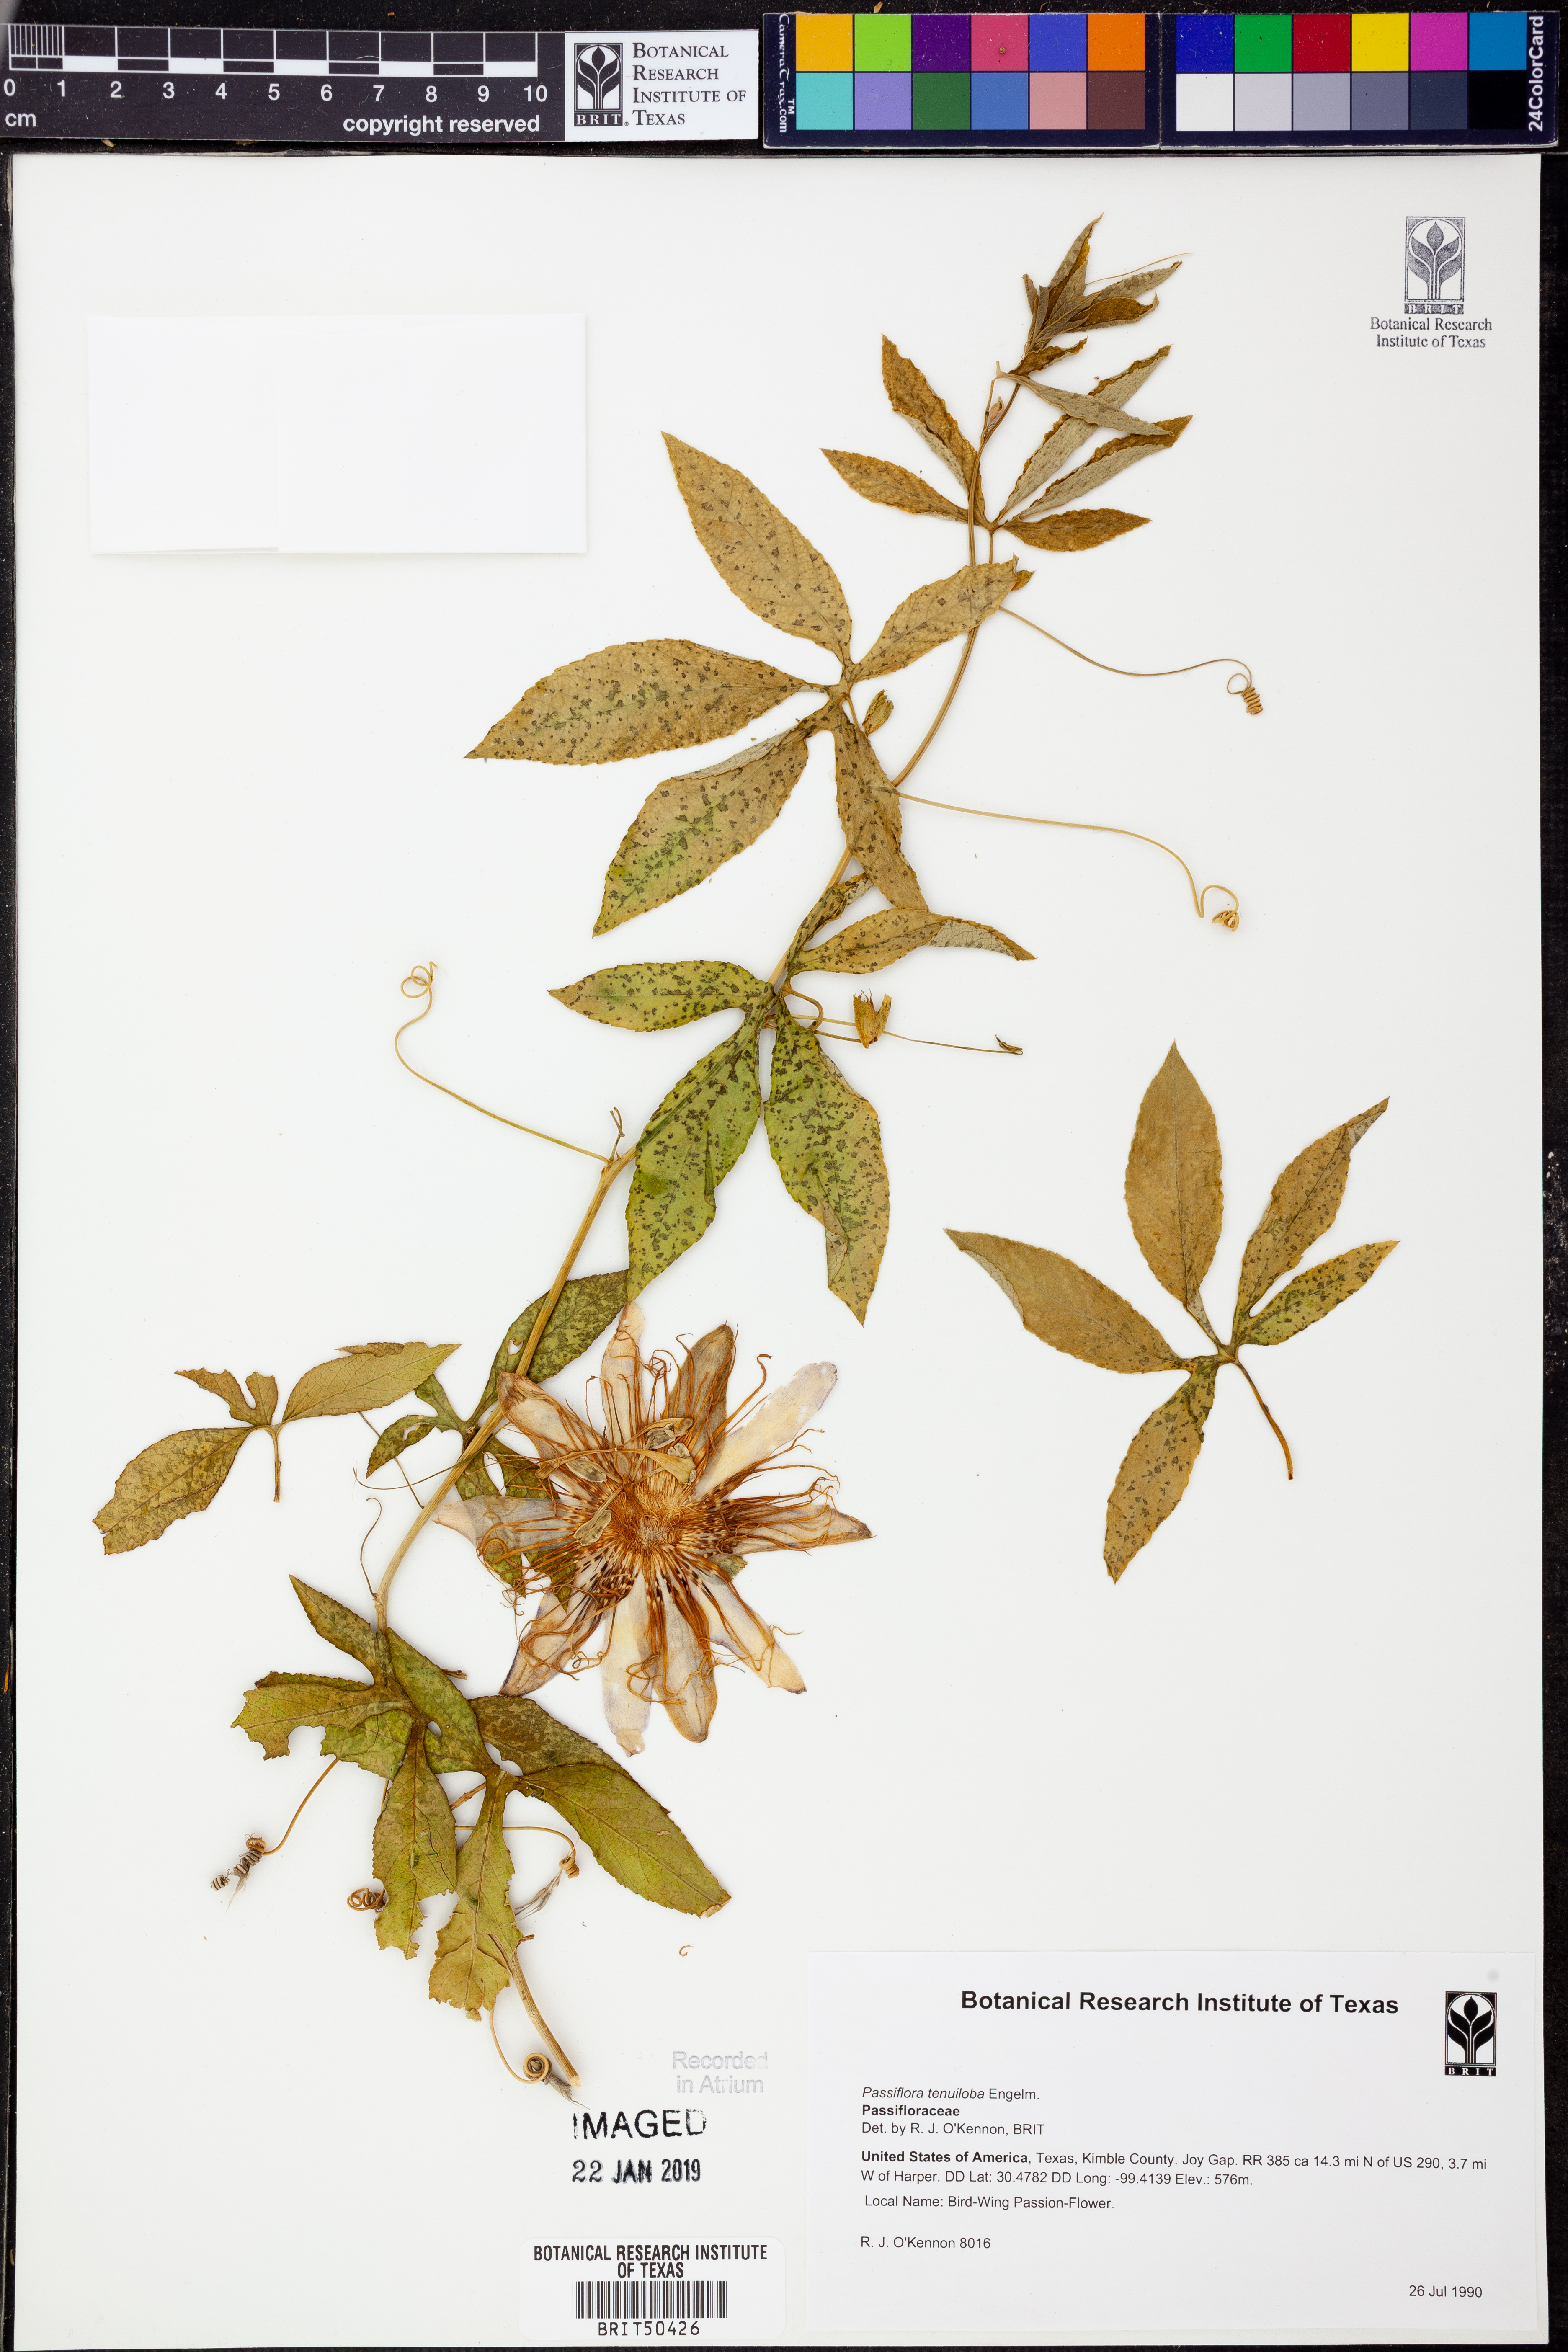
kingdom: Plantae
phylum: Tracheophyta
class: Magnoliopsida
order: Malpighiales
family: Passifloraceae
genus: Passiflora
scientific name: Passiflora tenuiloba
